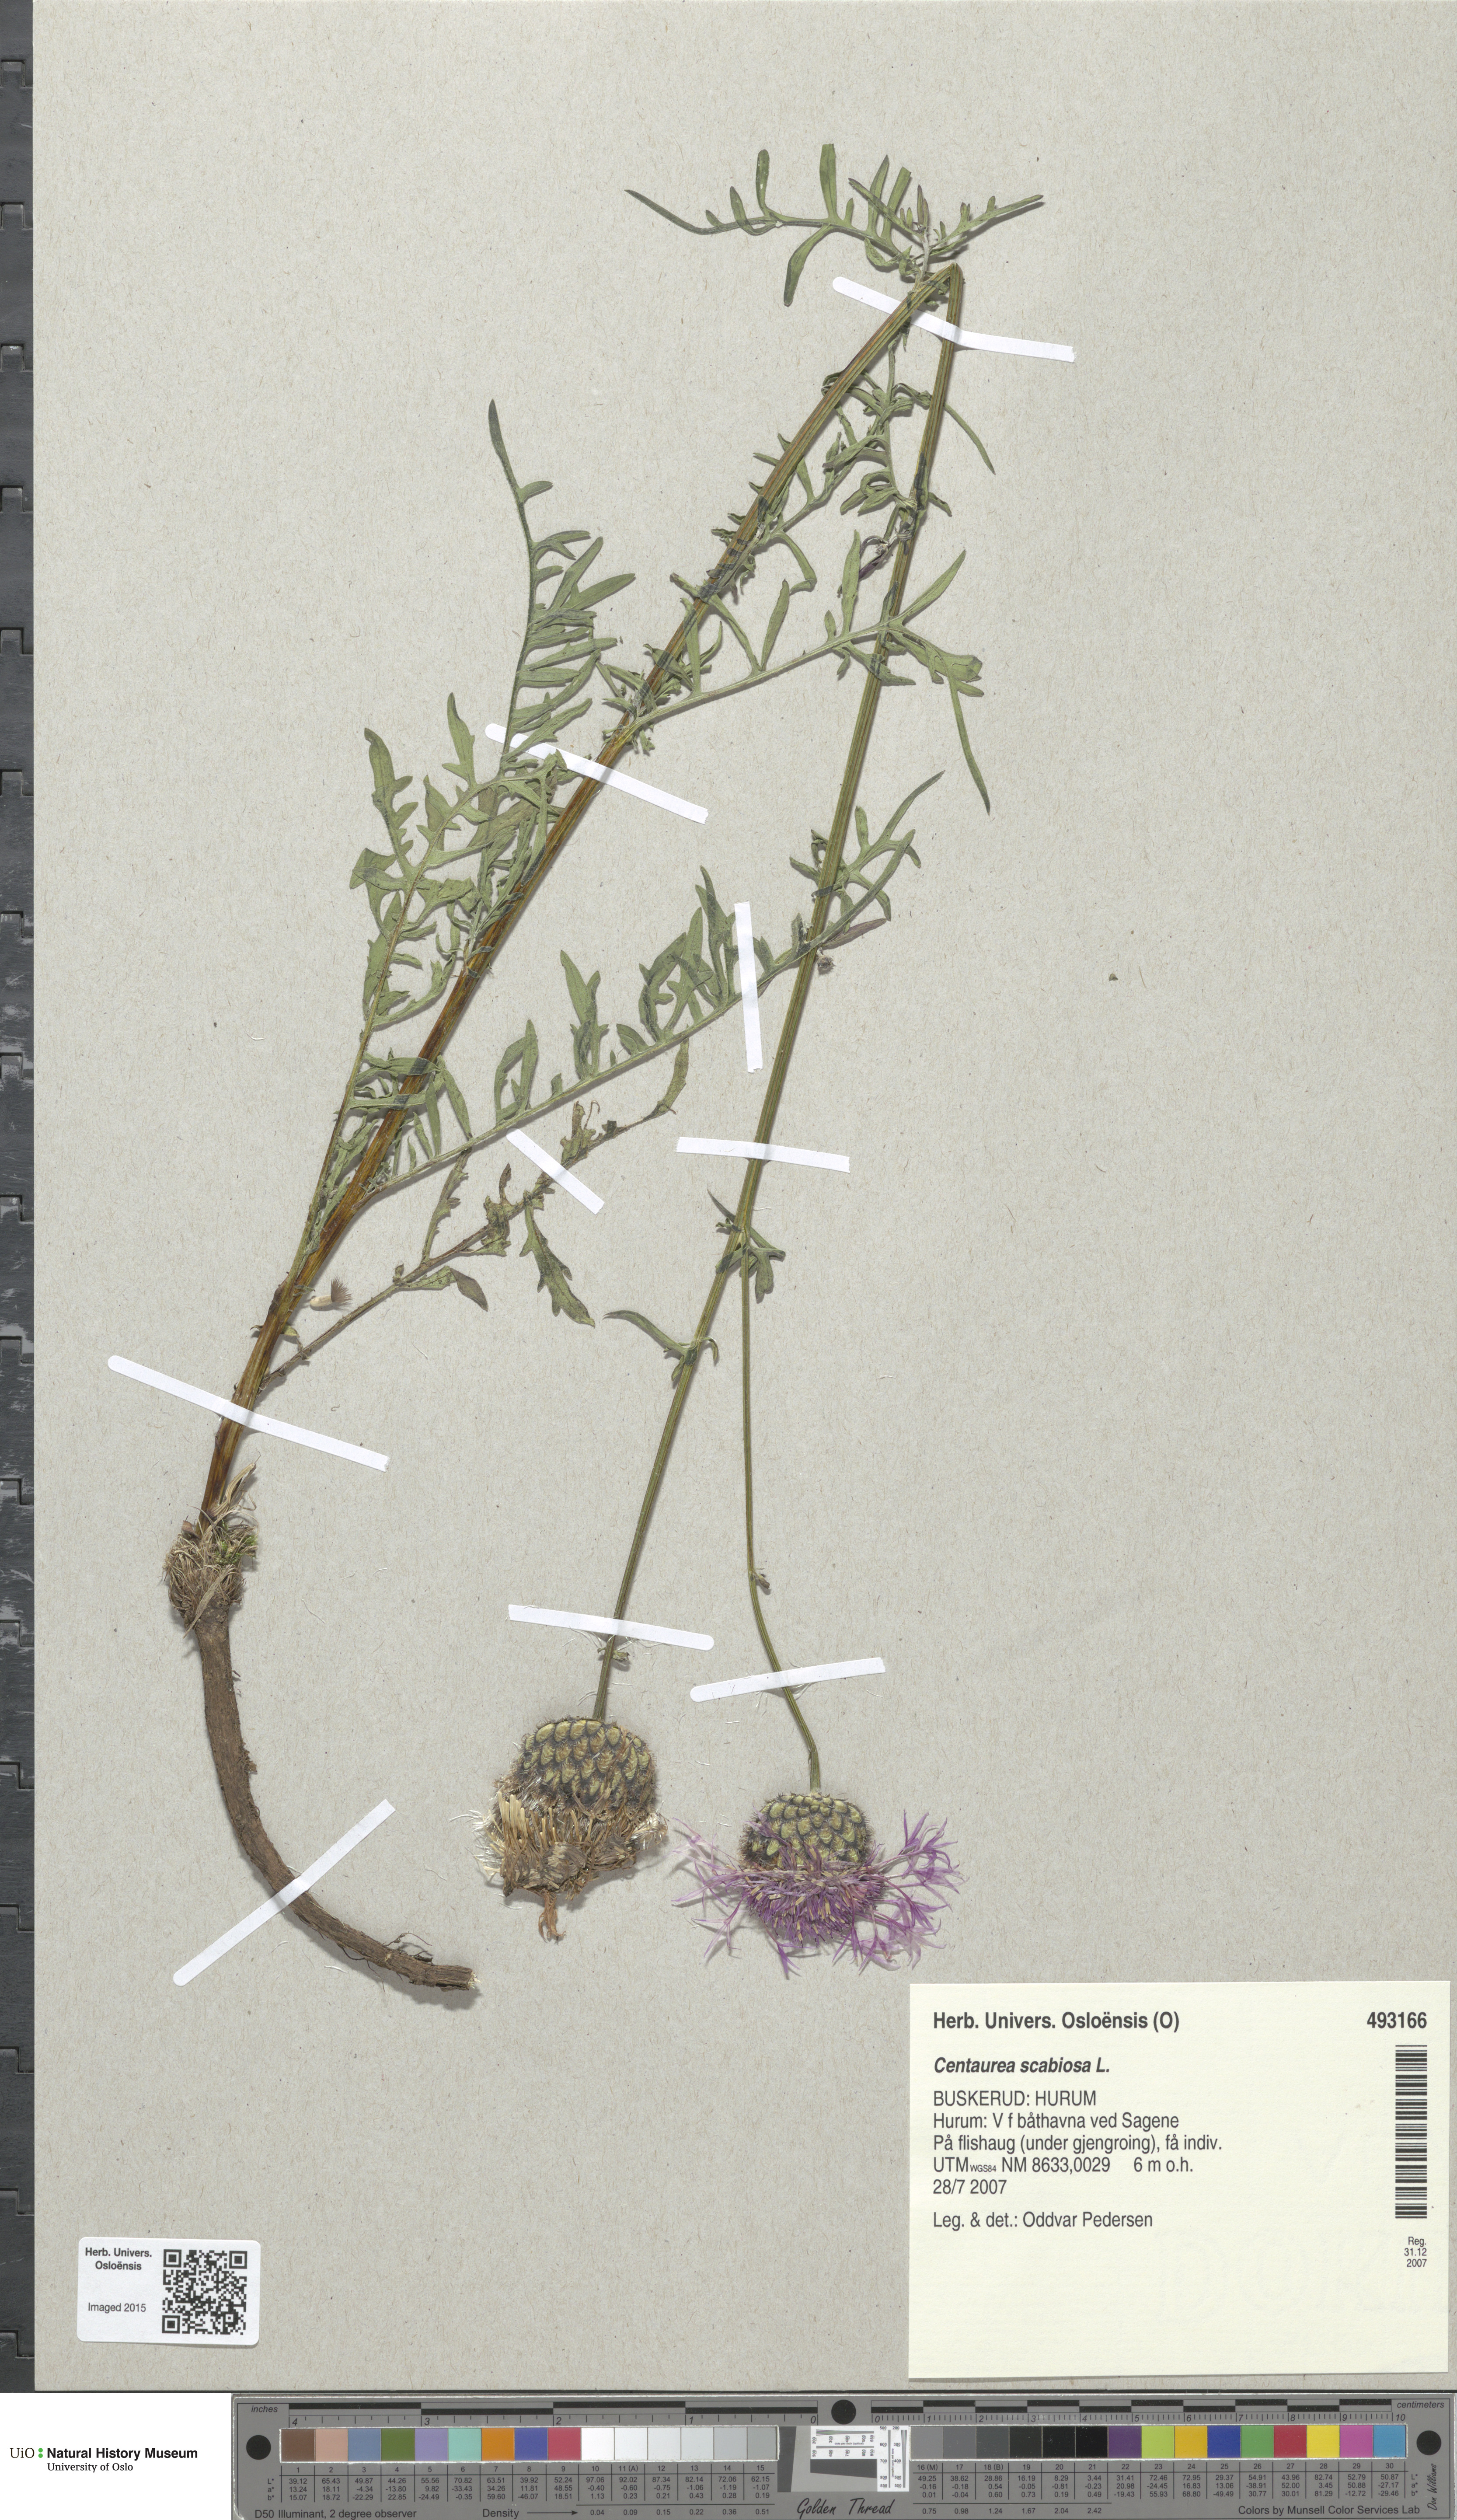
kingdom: Plantae
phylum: Tracheophyta
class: Magnoliopsida
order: Asterales
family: Asteraceae
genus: Centaurea
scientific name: Centaurea scabiosa
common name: Greater knapweed
